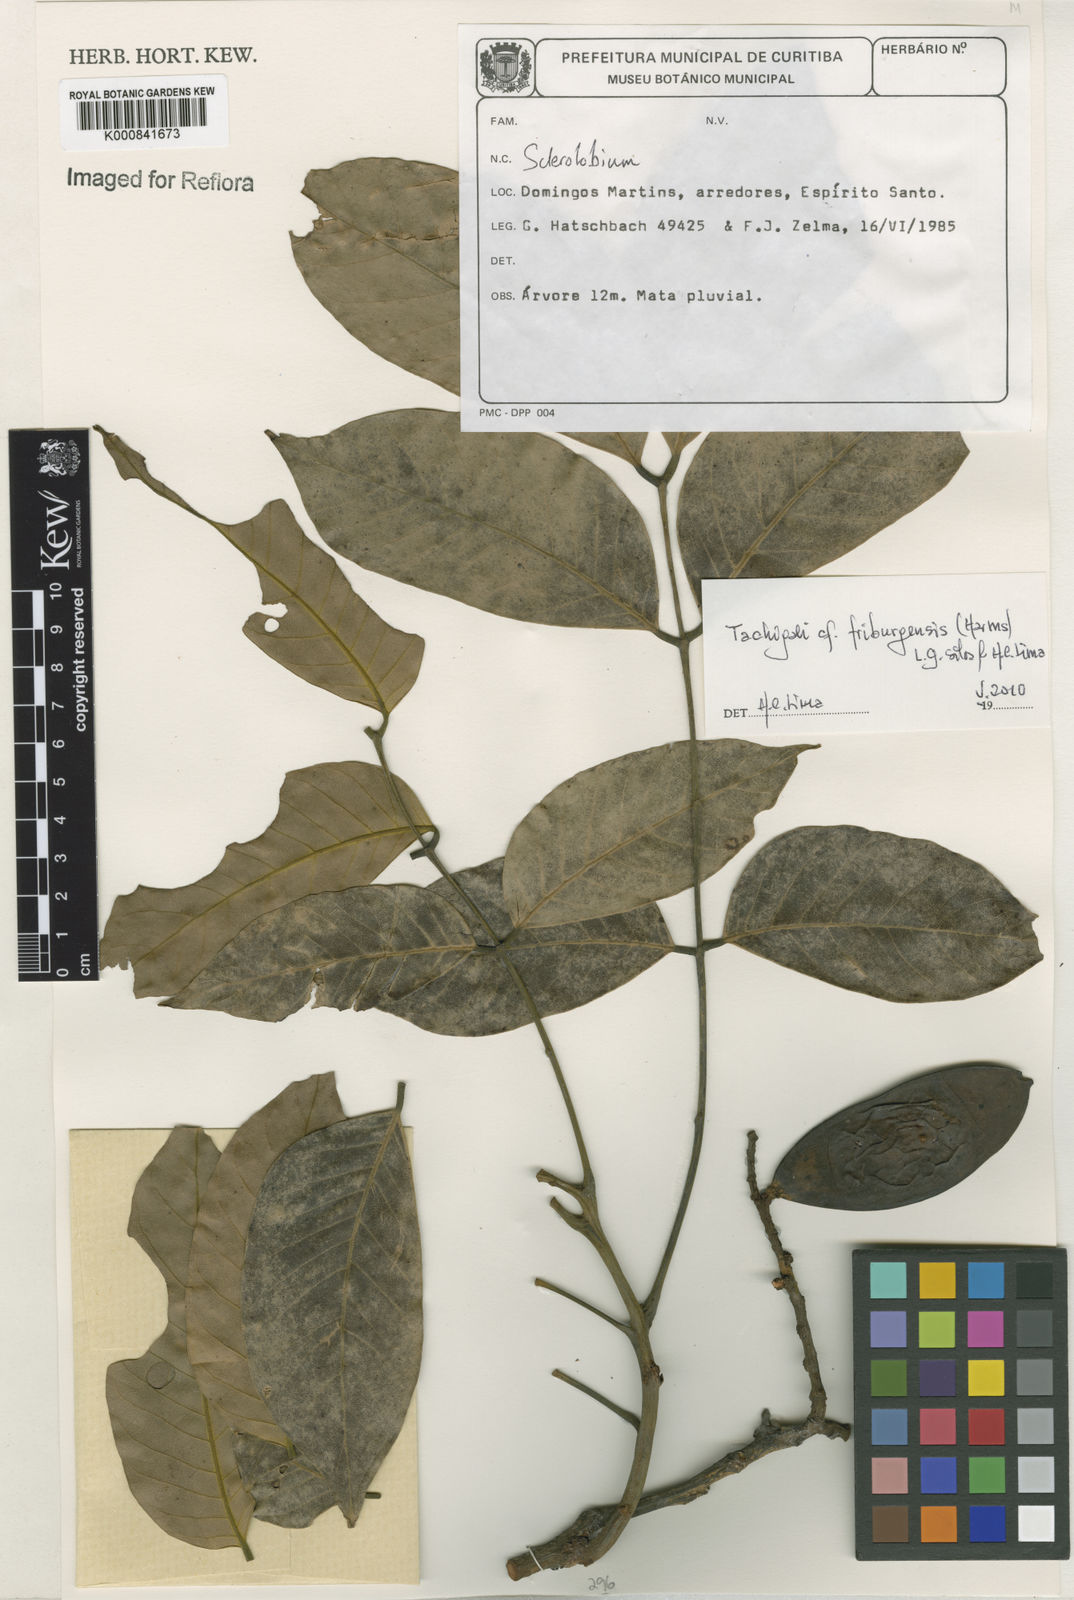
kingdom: Plantae
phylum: Tracheophyta
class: Magnoliopsida
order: Fabales
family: Fabaceae
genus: Tachigali
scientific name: Tachigali friburgensis
